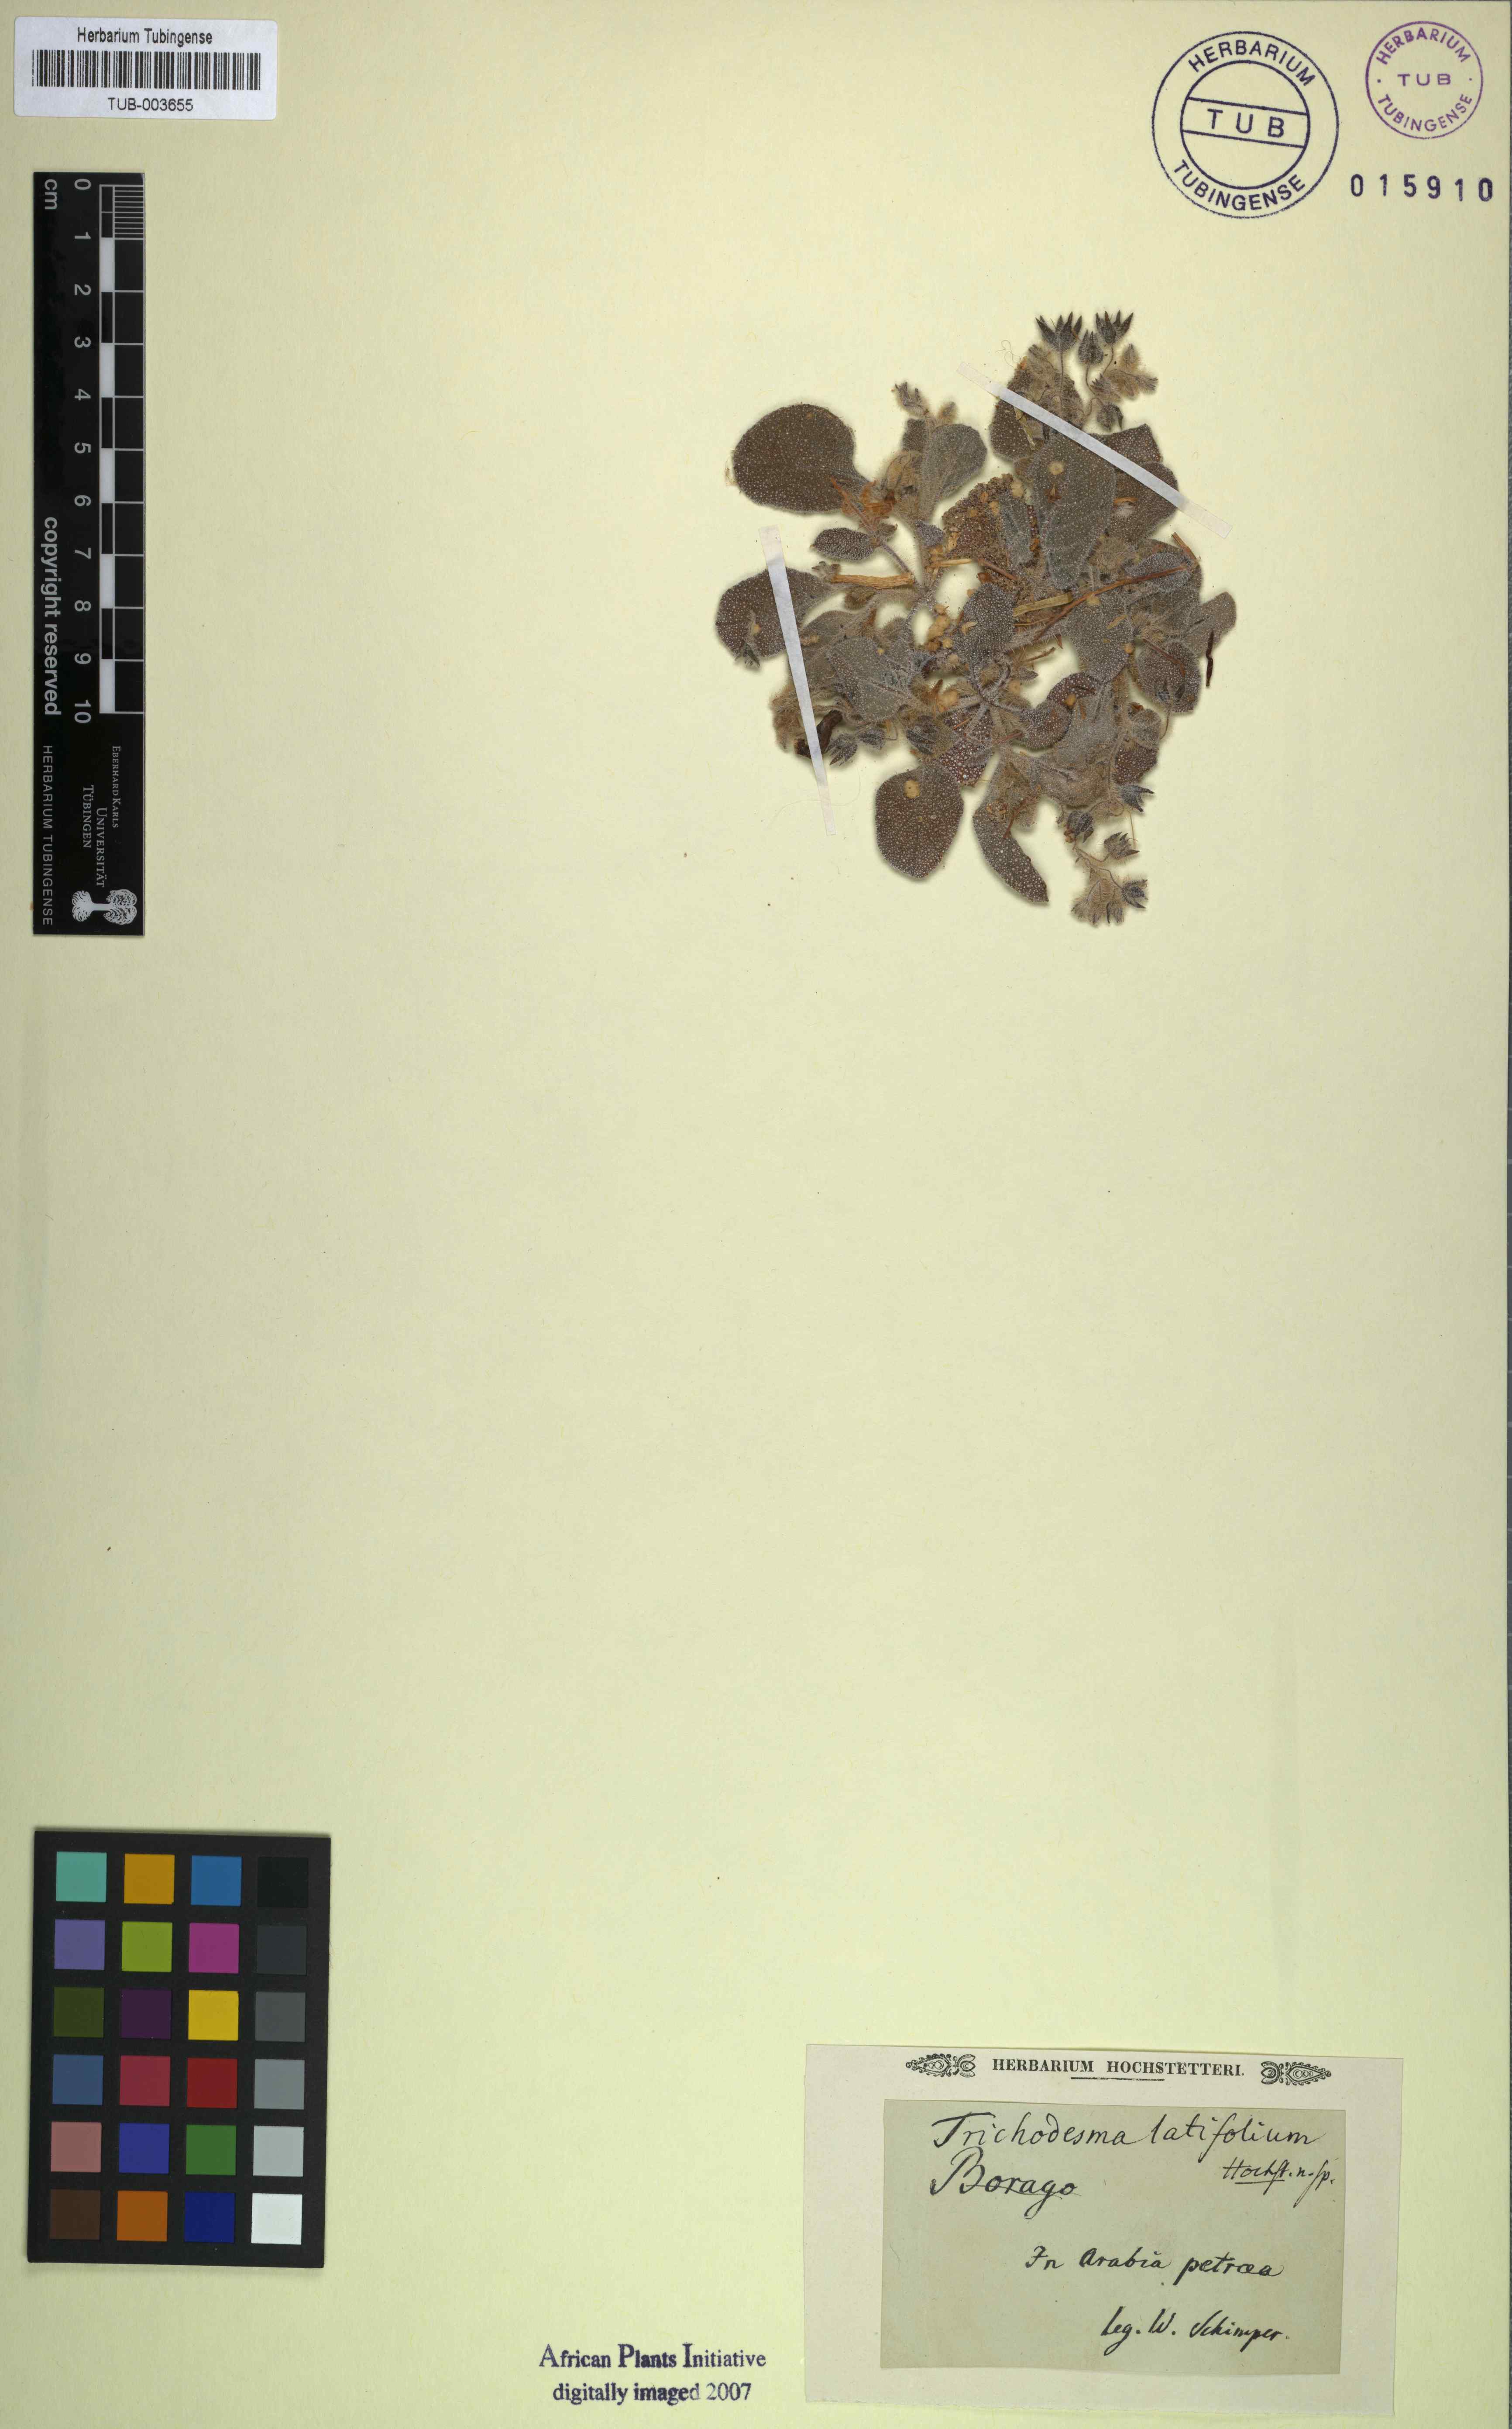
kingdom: Plantae
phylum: Tracheophyta
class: Magnoliopsida
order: Boraginales
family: Boraginaceae
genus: Trichodesma
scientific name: Trichodesma
